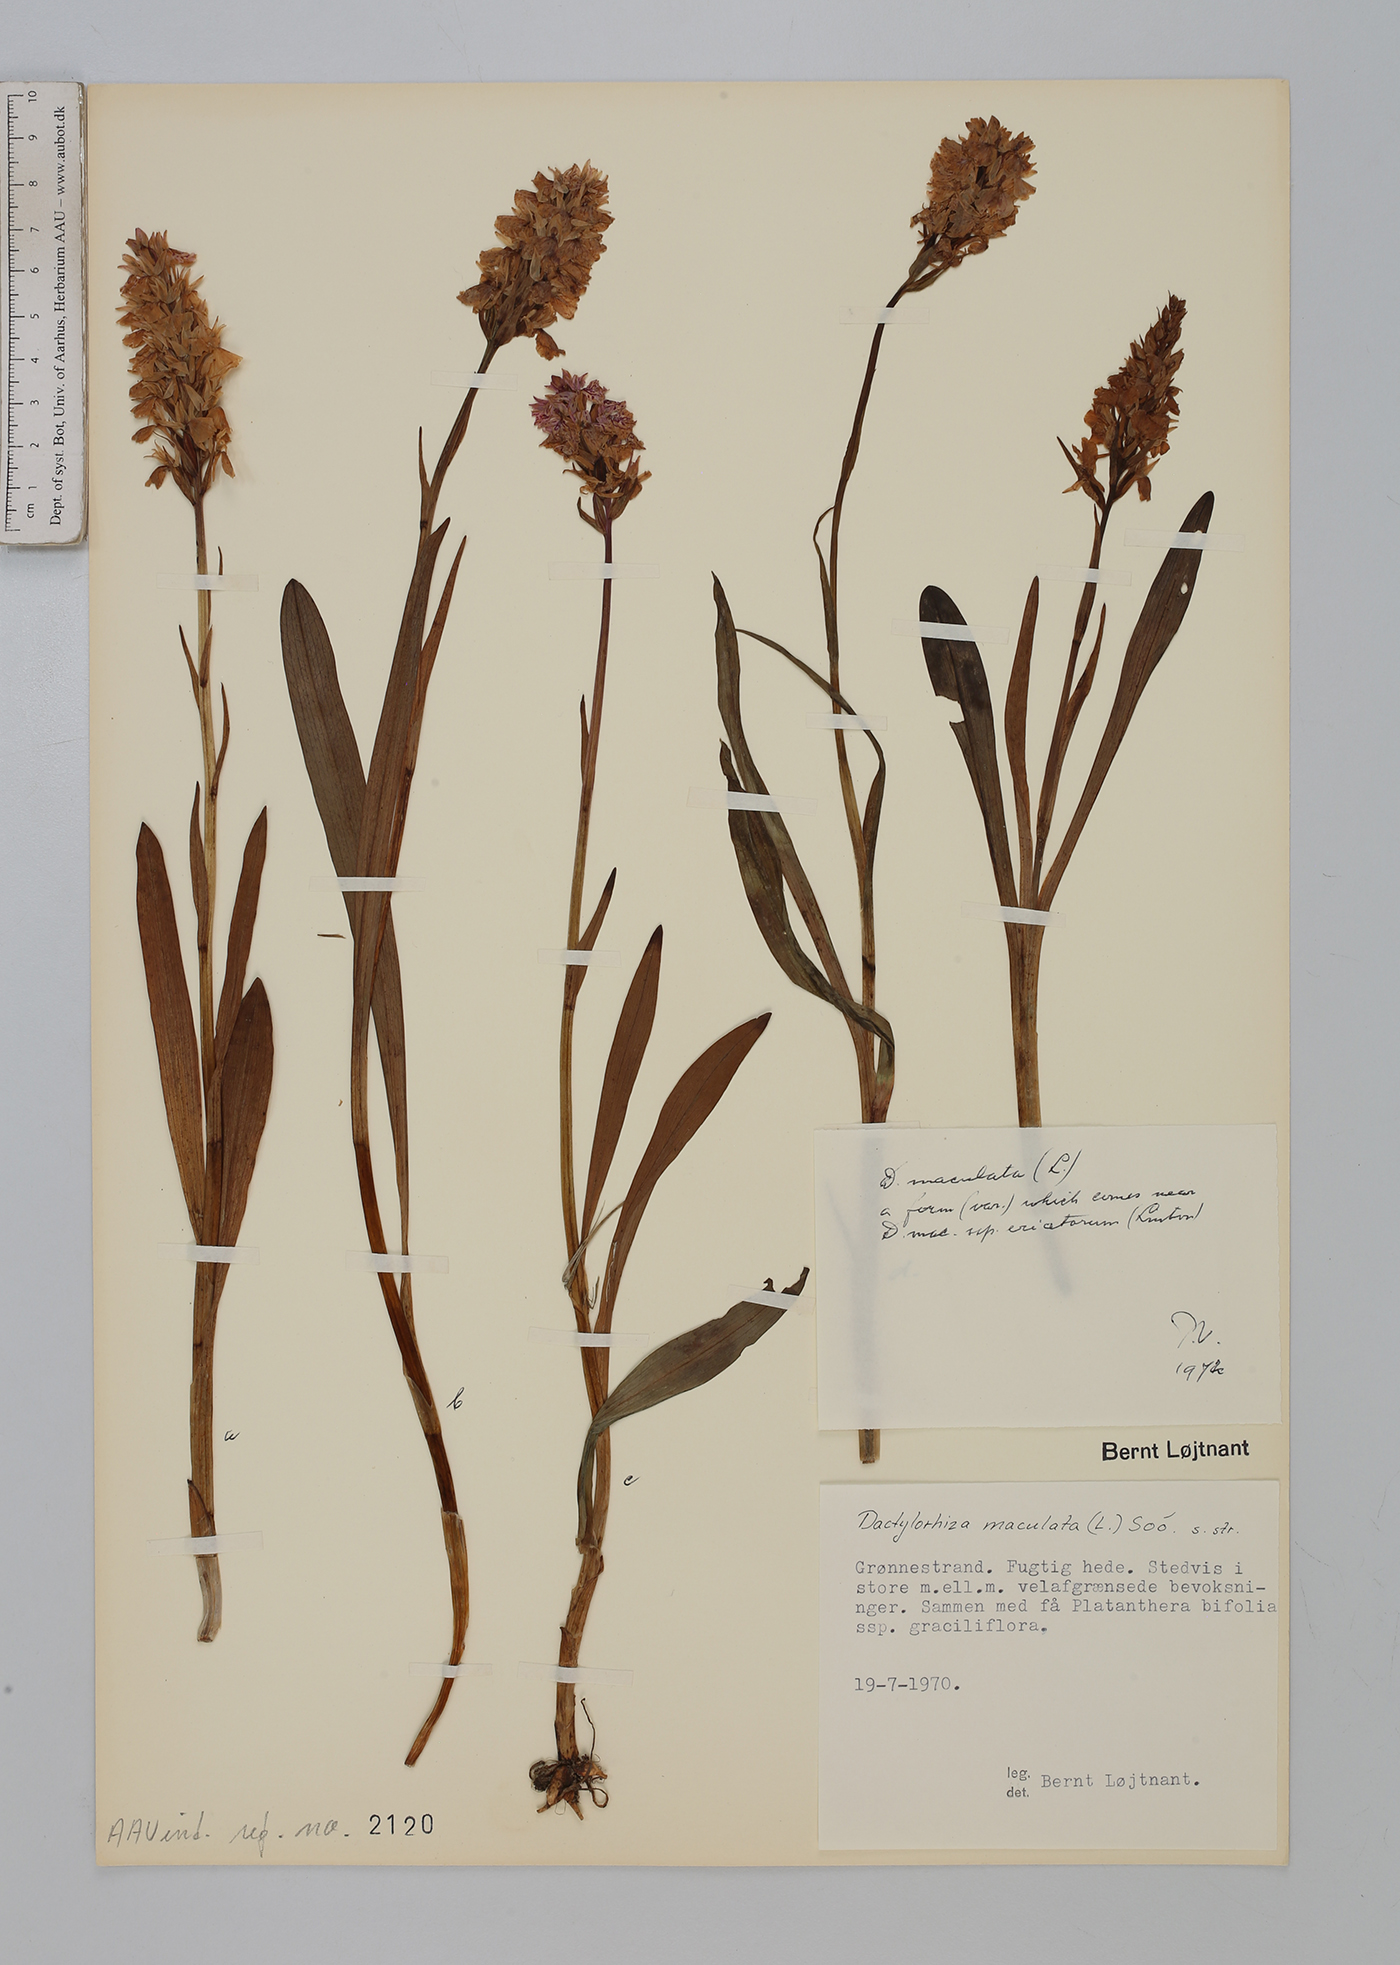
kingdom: Plantae
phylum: Tracheophyta
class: Liliopsida
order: Asparagales
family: Orchidaceae
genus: Dactylorhiza
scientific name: Dactylorhiza maculata
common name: Heath spotted-orchid
